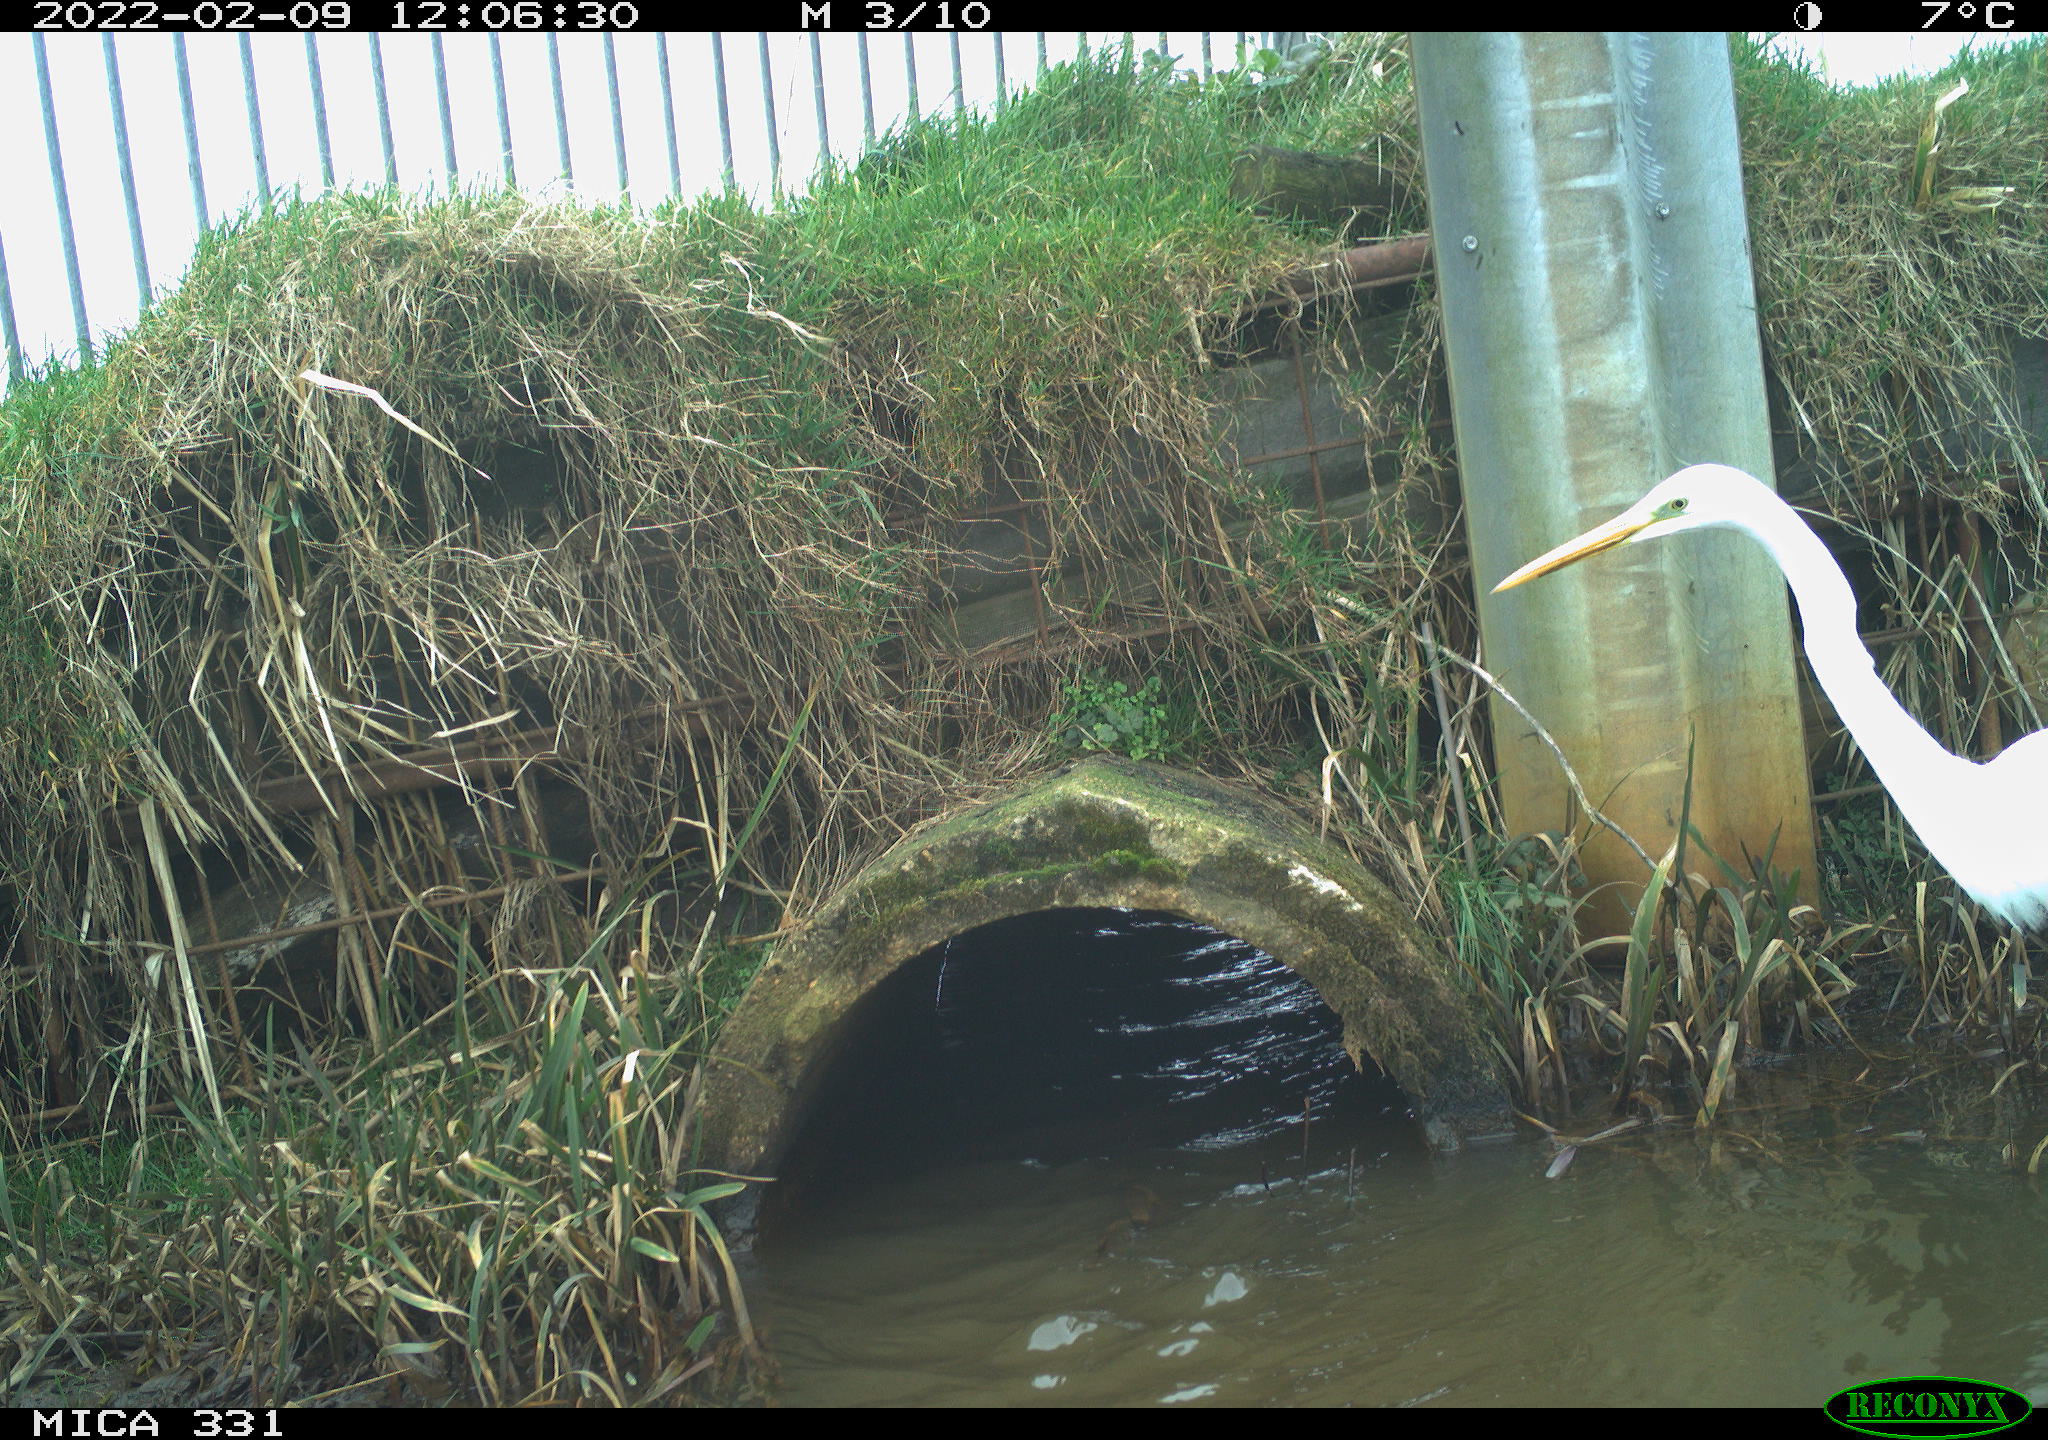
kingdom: Animalia
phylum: Chordata
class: Aves
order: Pelecaniformes
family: Ardeidae
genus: Ardea
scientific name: Ardea alba
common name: Great egret
